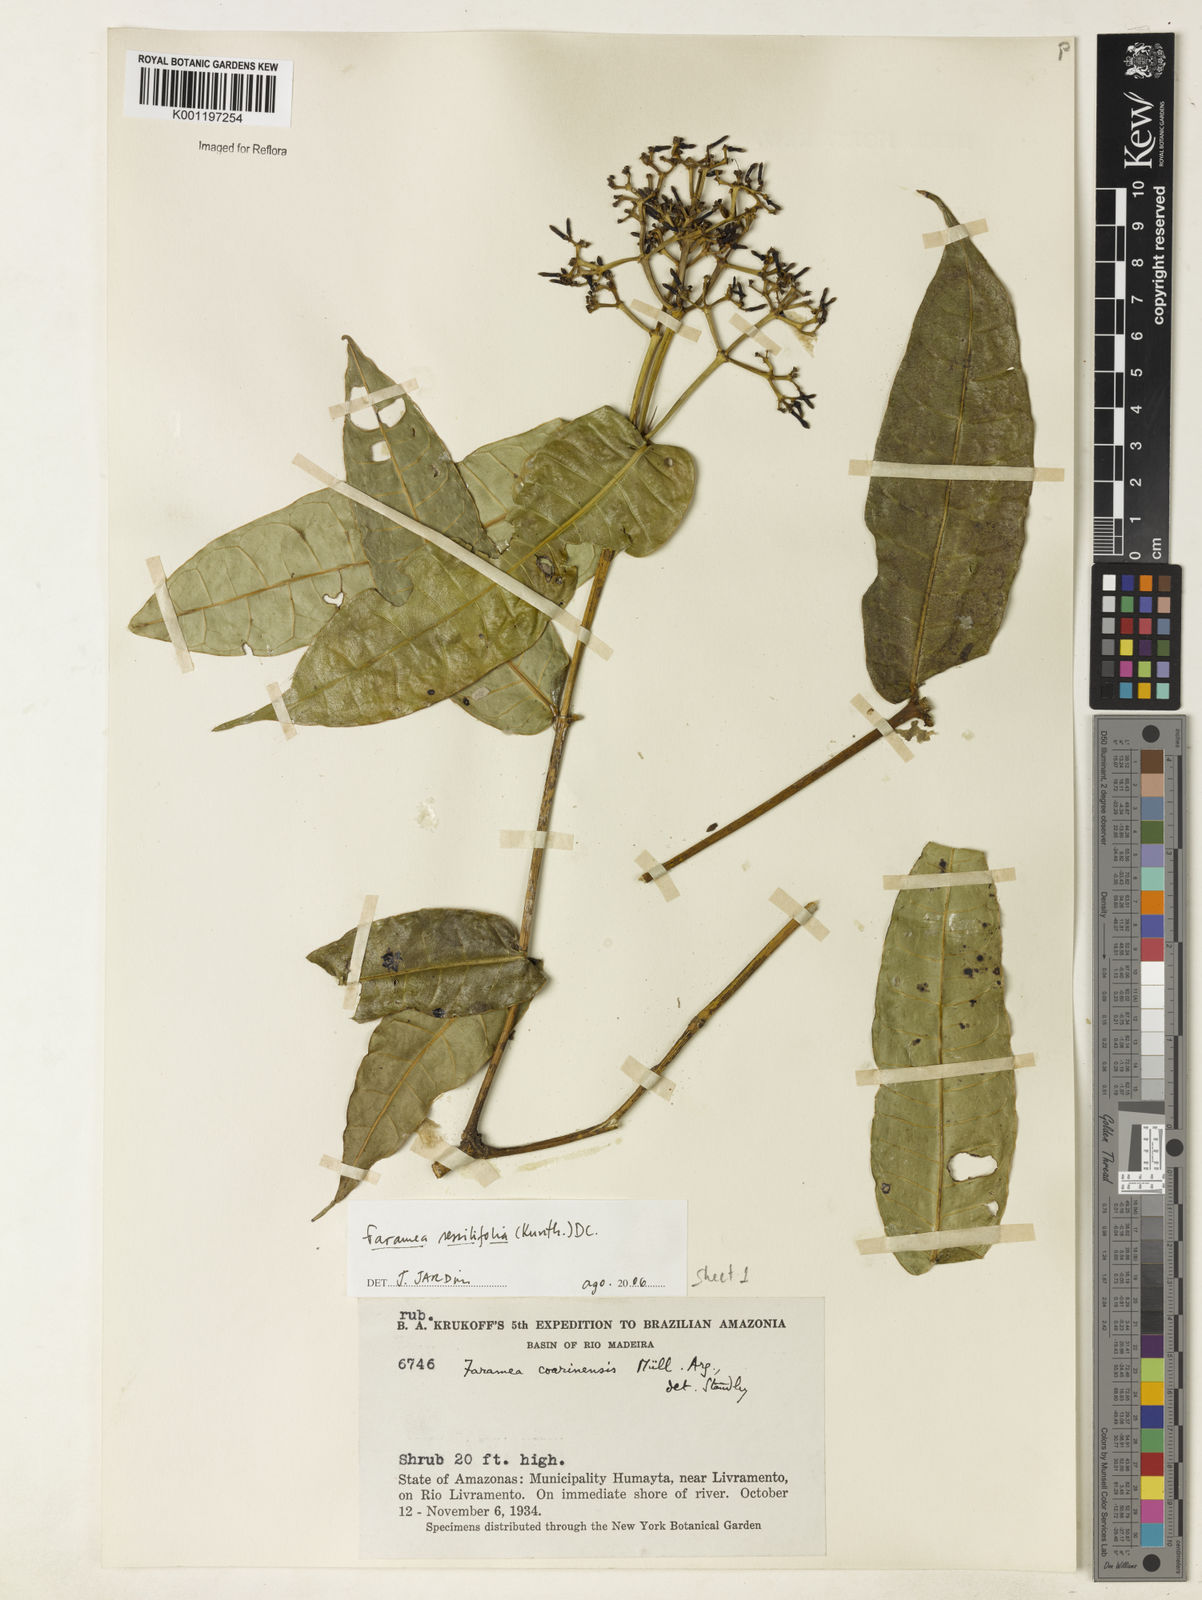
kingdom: Plantae
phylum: Tracheophyta
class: Magnoliopsida
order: Gentianales
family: Rubiaceae
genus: Faramea
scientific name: Faramea sessilifolia
